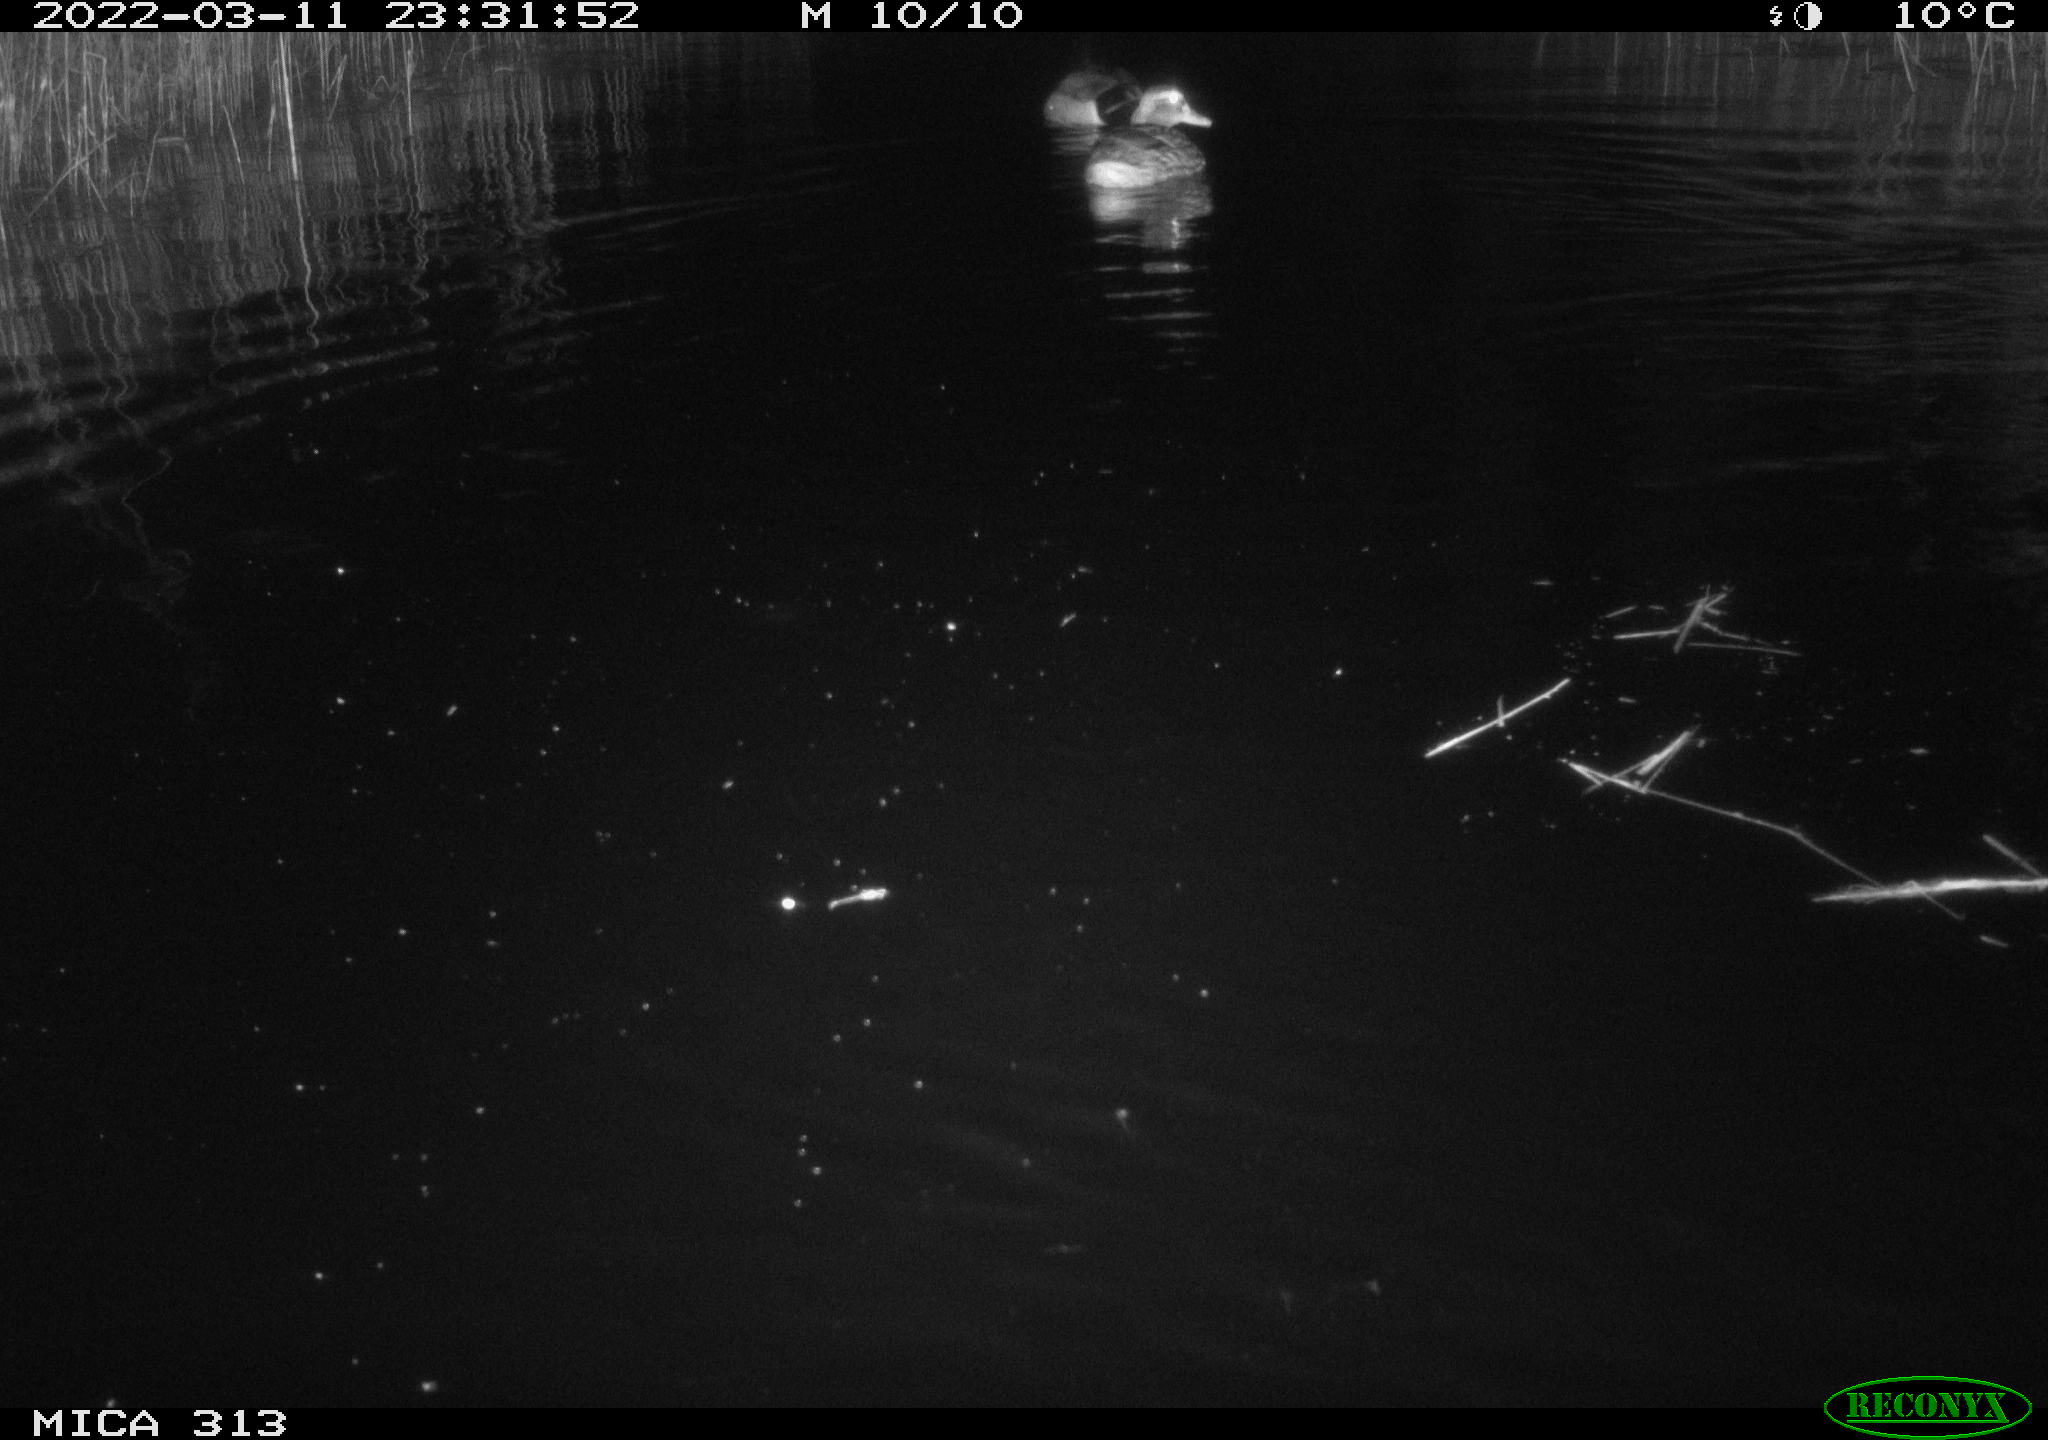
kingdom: Animalia
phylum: Chordata
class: Aves
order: Gruiformes
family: Rallidae
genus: Gallinula
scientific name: Gallinula chloropus
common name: Common moorhen
